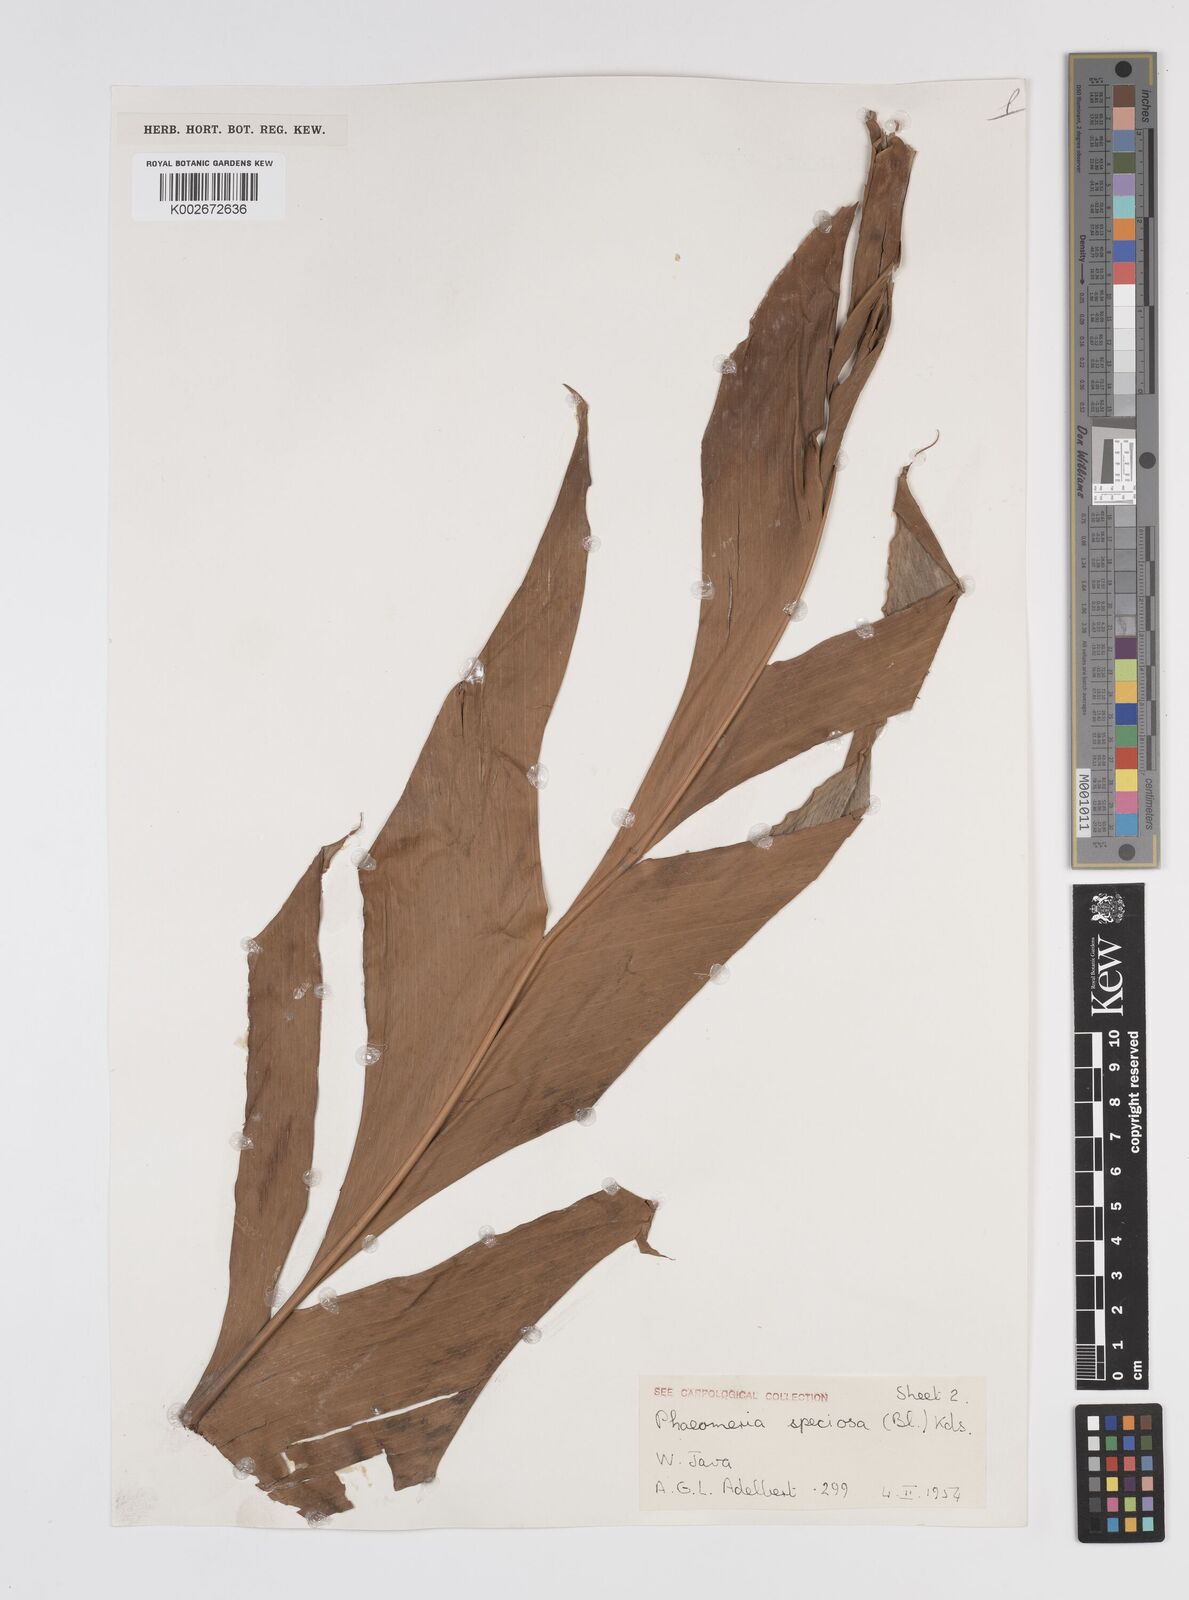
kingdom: Plantae
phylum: Tracheophyta
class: Liliopsida
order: Zingiberales
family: Zingiberaceae
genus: Etlingera
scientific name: Etlingera elatior
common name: Philippine waxflower
